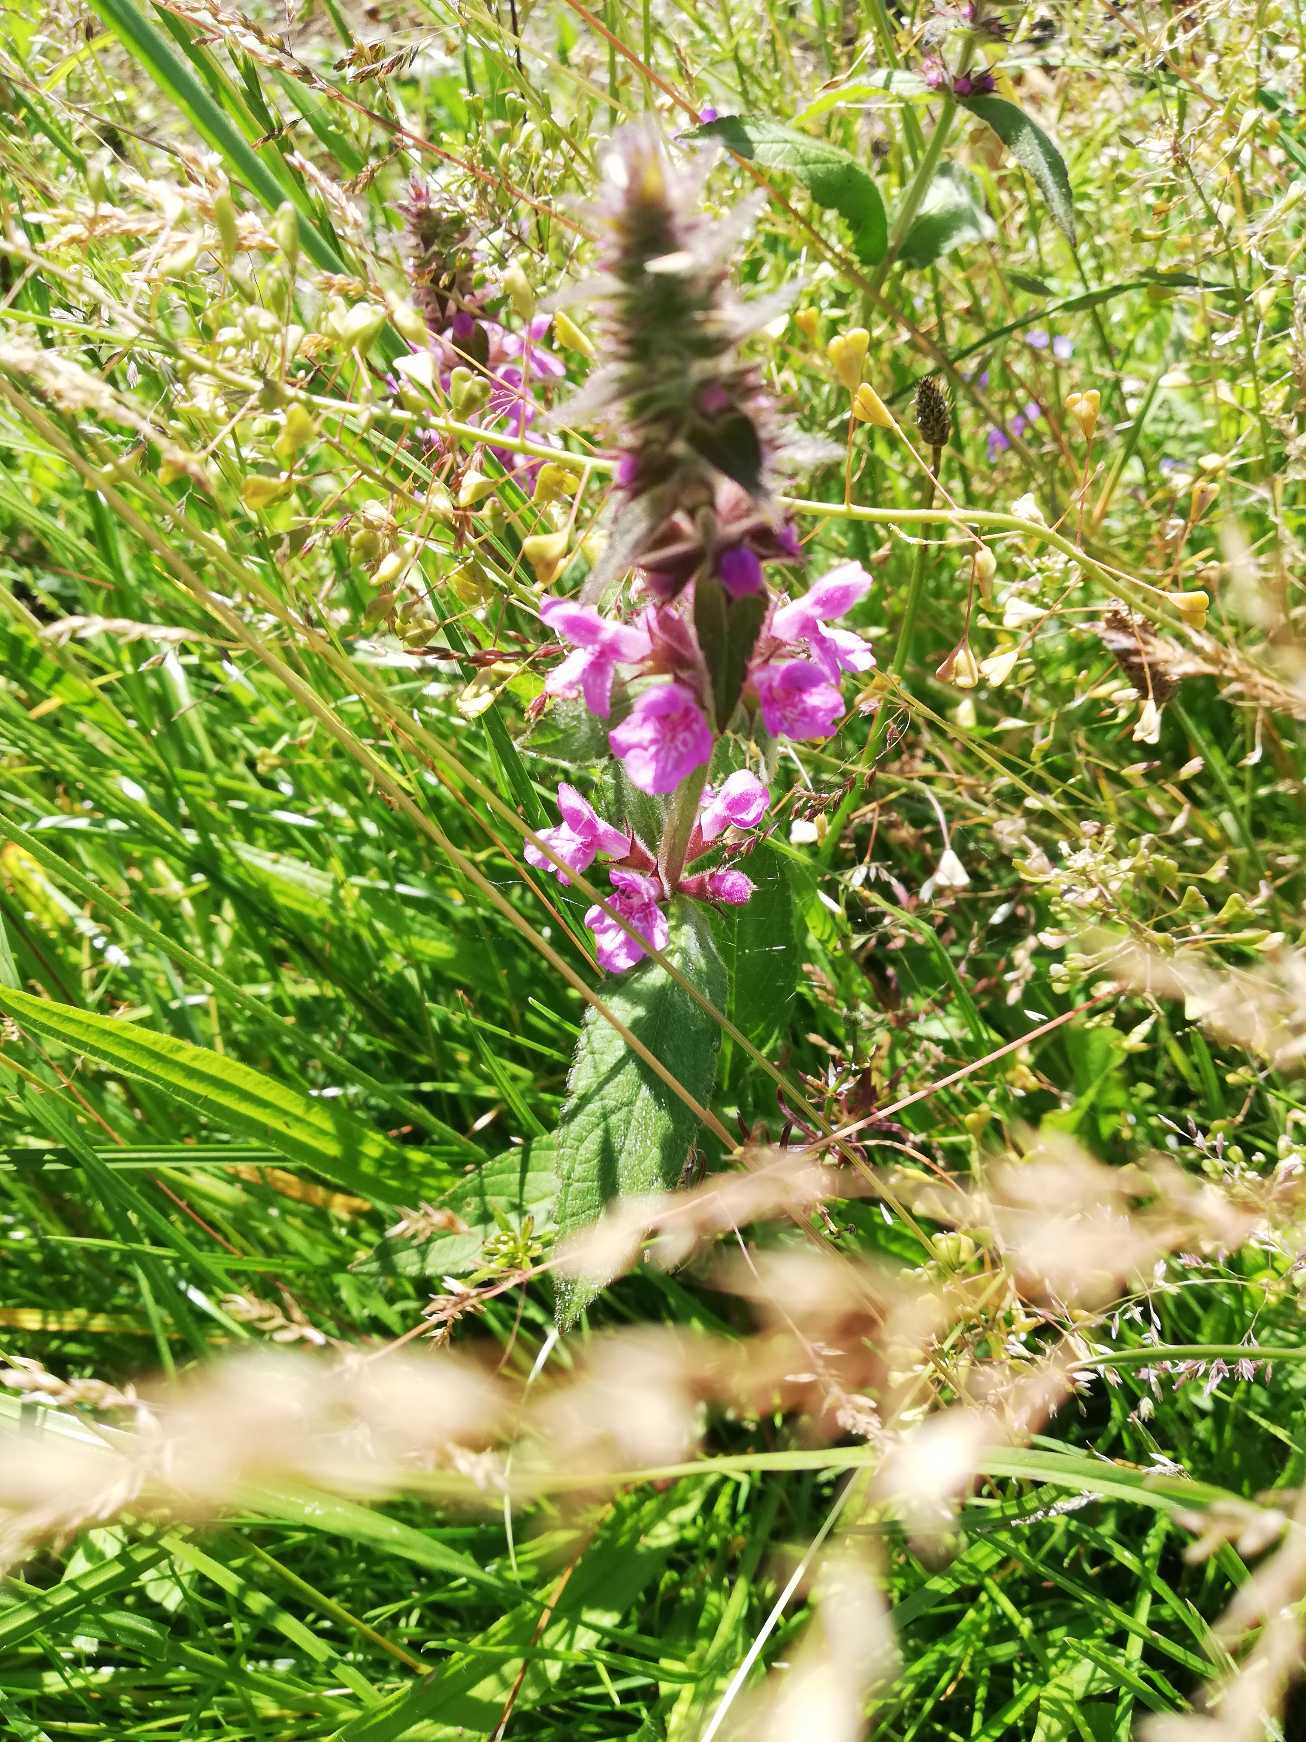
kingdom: Plantae
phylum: Tracheophyta
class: Magnoliopsida
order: Lamiales
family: Lamiaceae
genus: Stachys
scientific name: Stachys palustris
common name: Kær-galtetand
